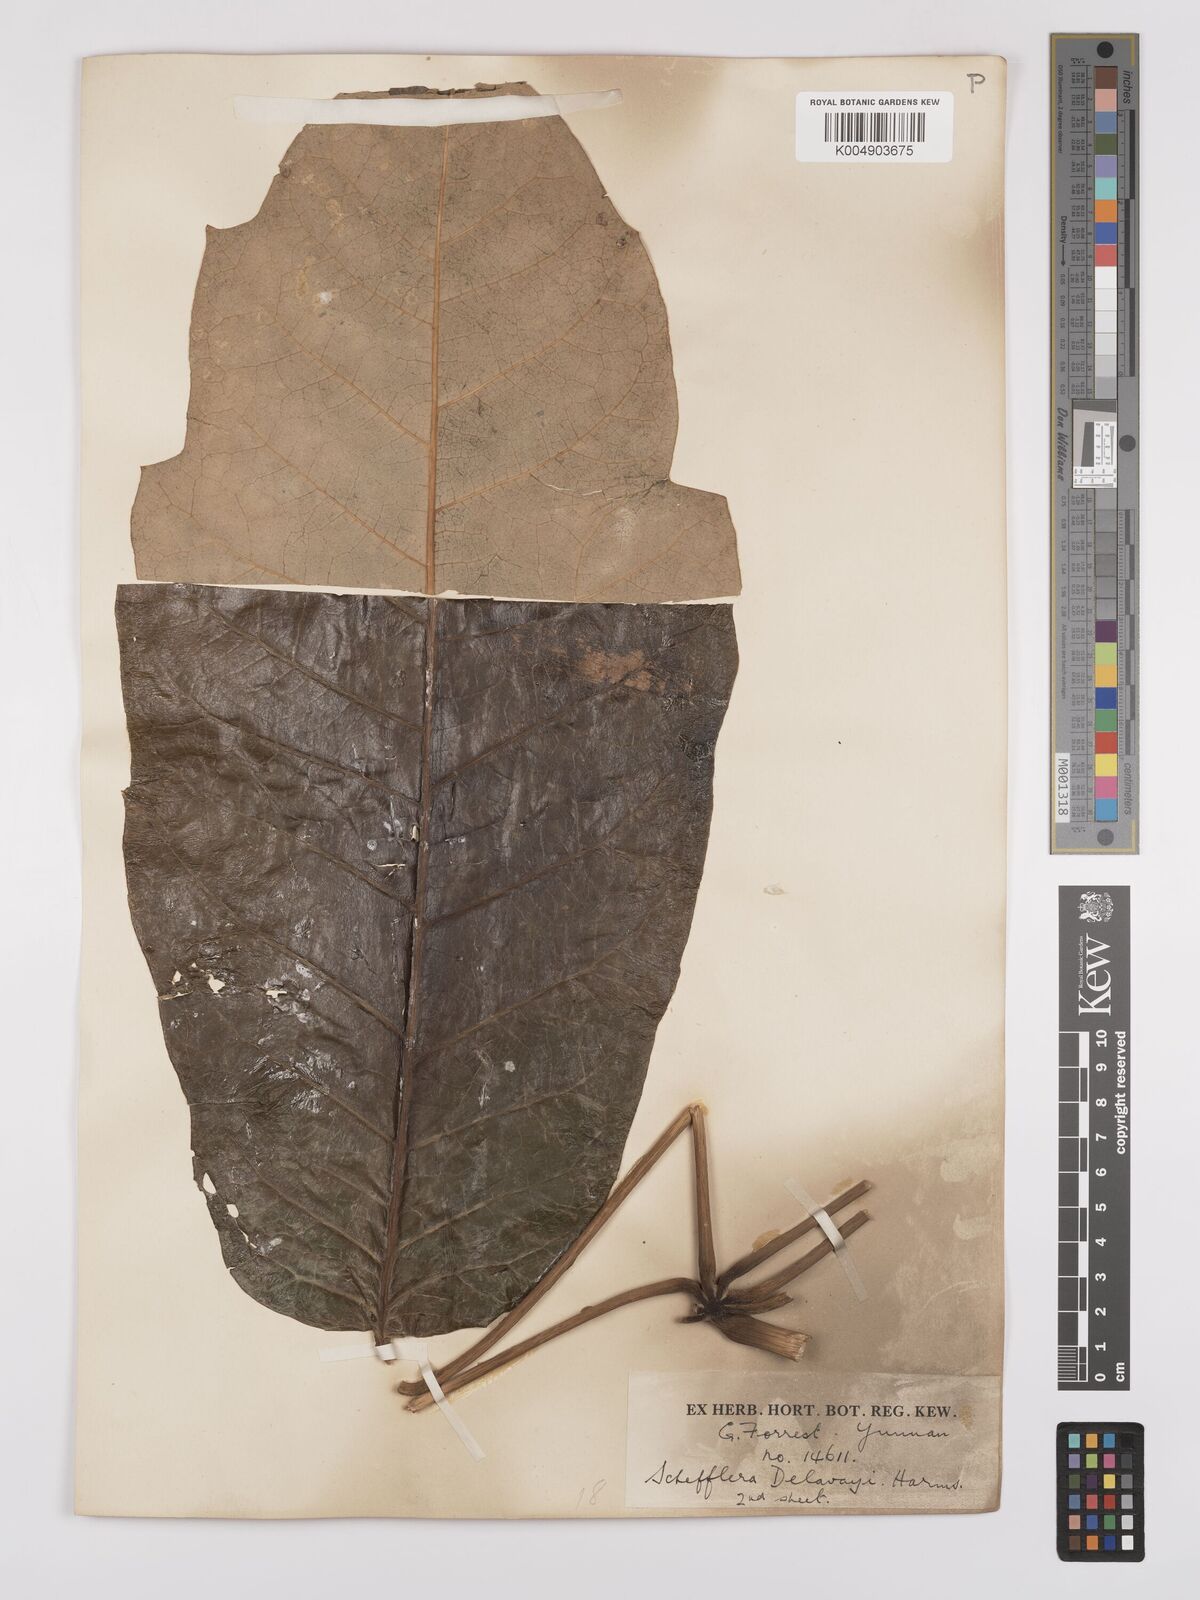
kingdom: Plantae
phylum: Tracheophyta
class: Magnoliopsida
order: Apiales
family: Araliaceae
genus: Heptapleurum
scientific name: Heptapleurum delavayi
